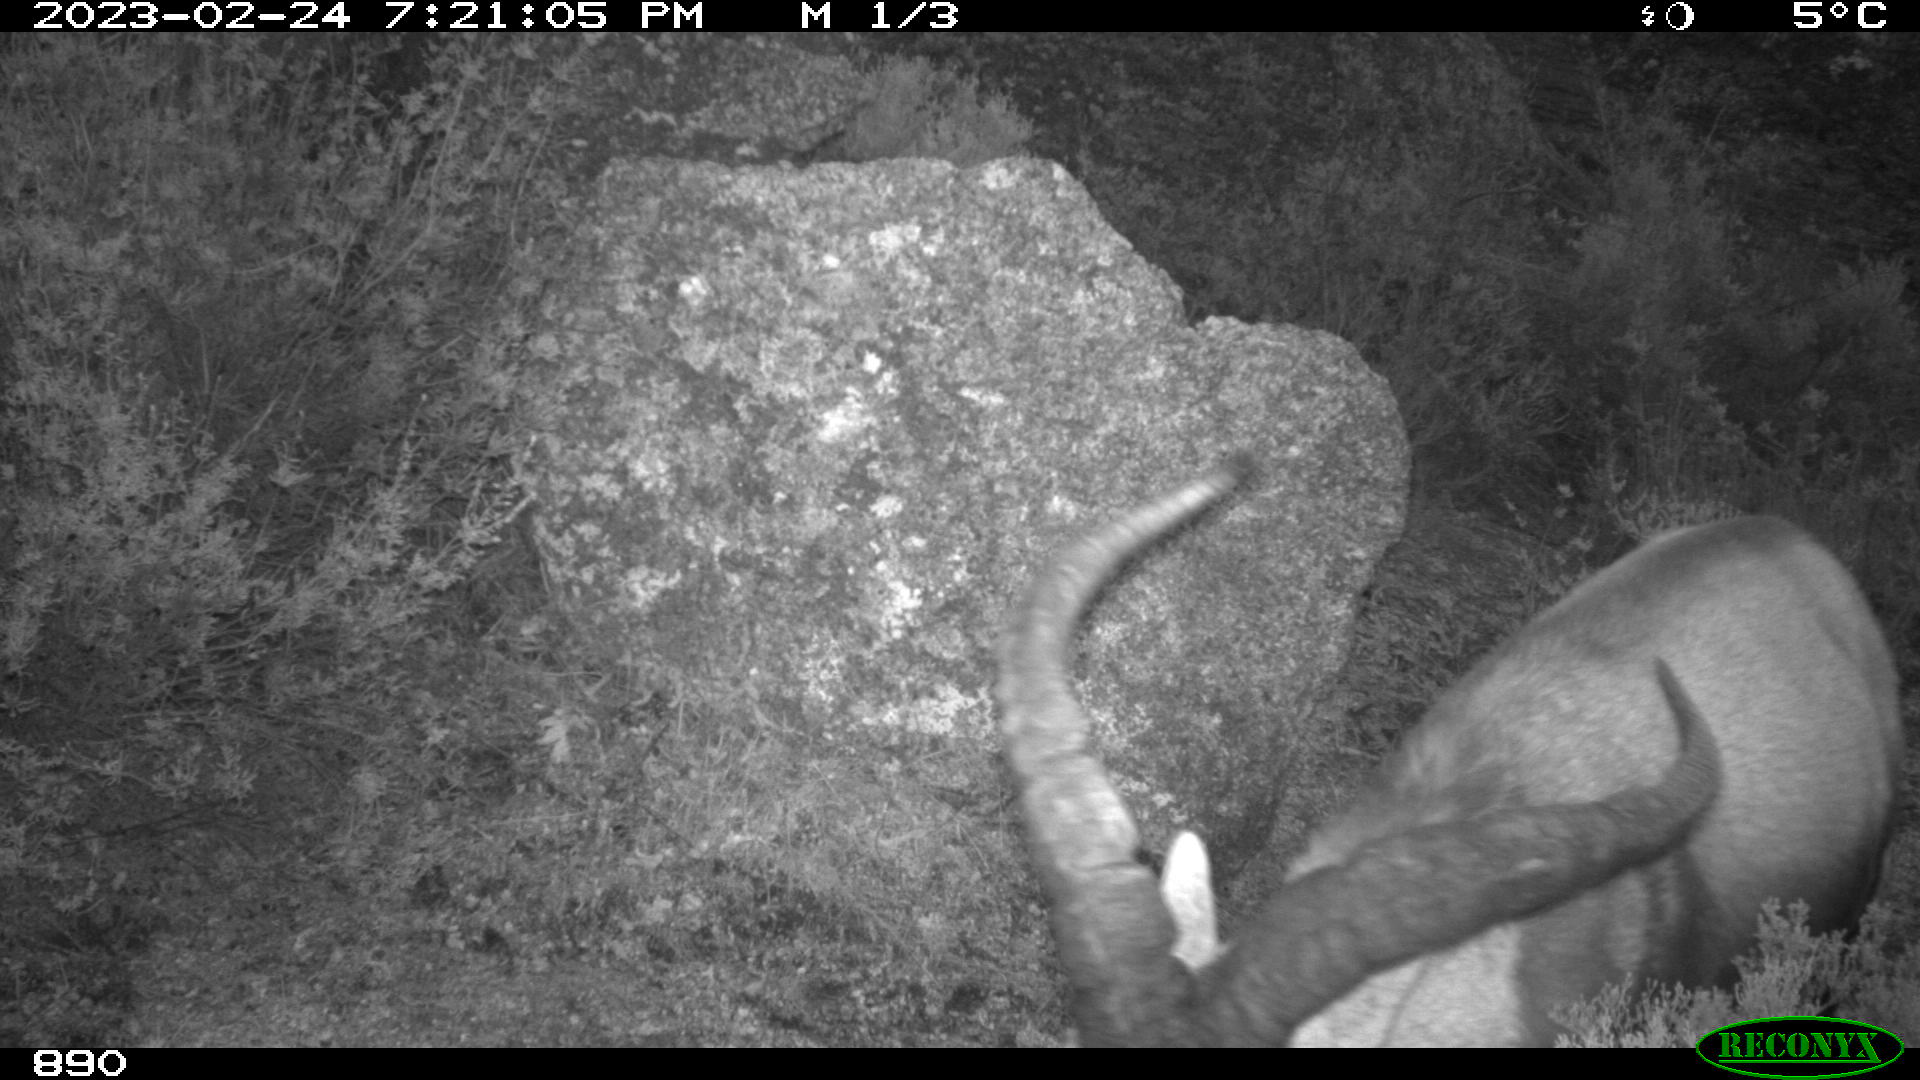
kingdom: Animalia
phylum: Chordata
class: Mammalia
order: Artiodactyla
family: Bovidae
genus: Capra
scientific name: Capra pyrenaica
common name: Spanish ibex
